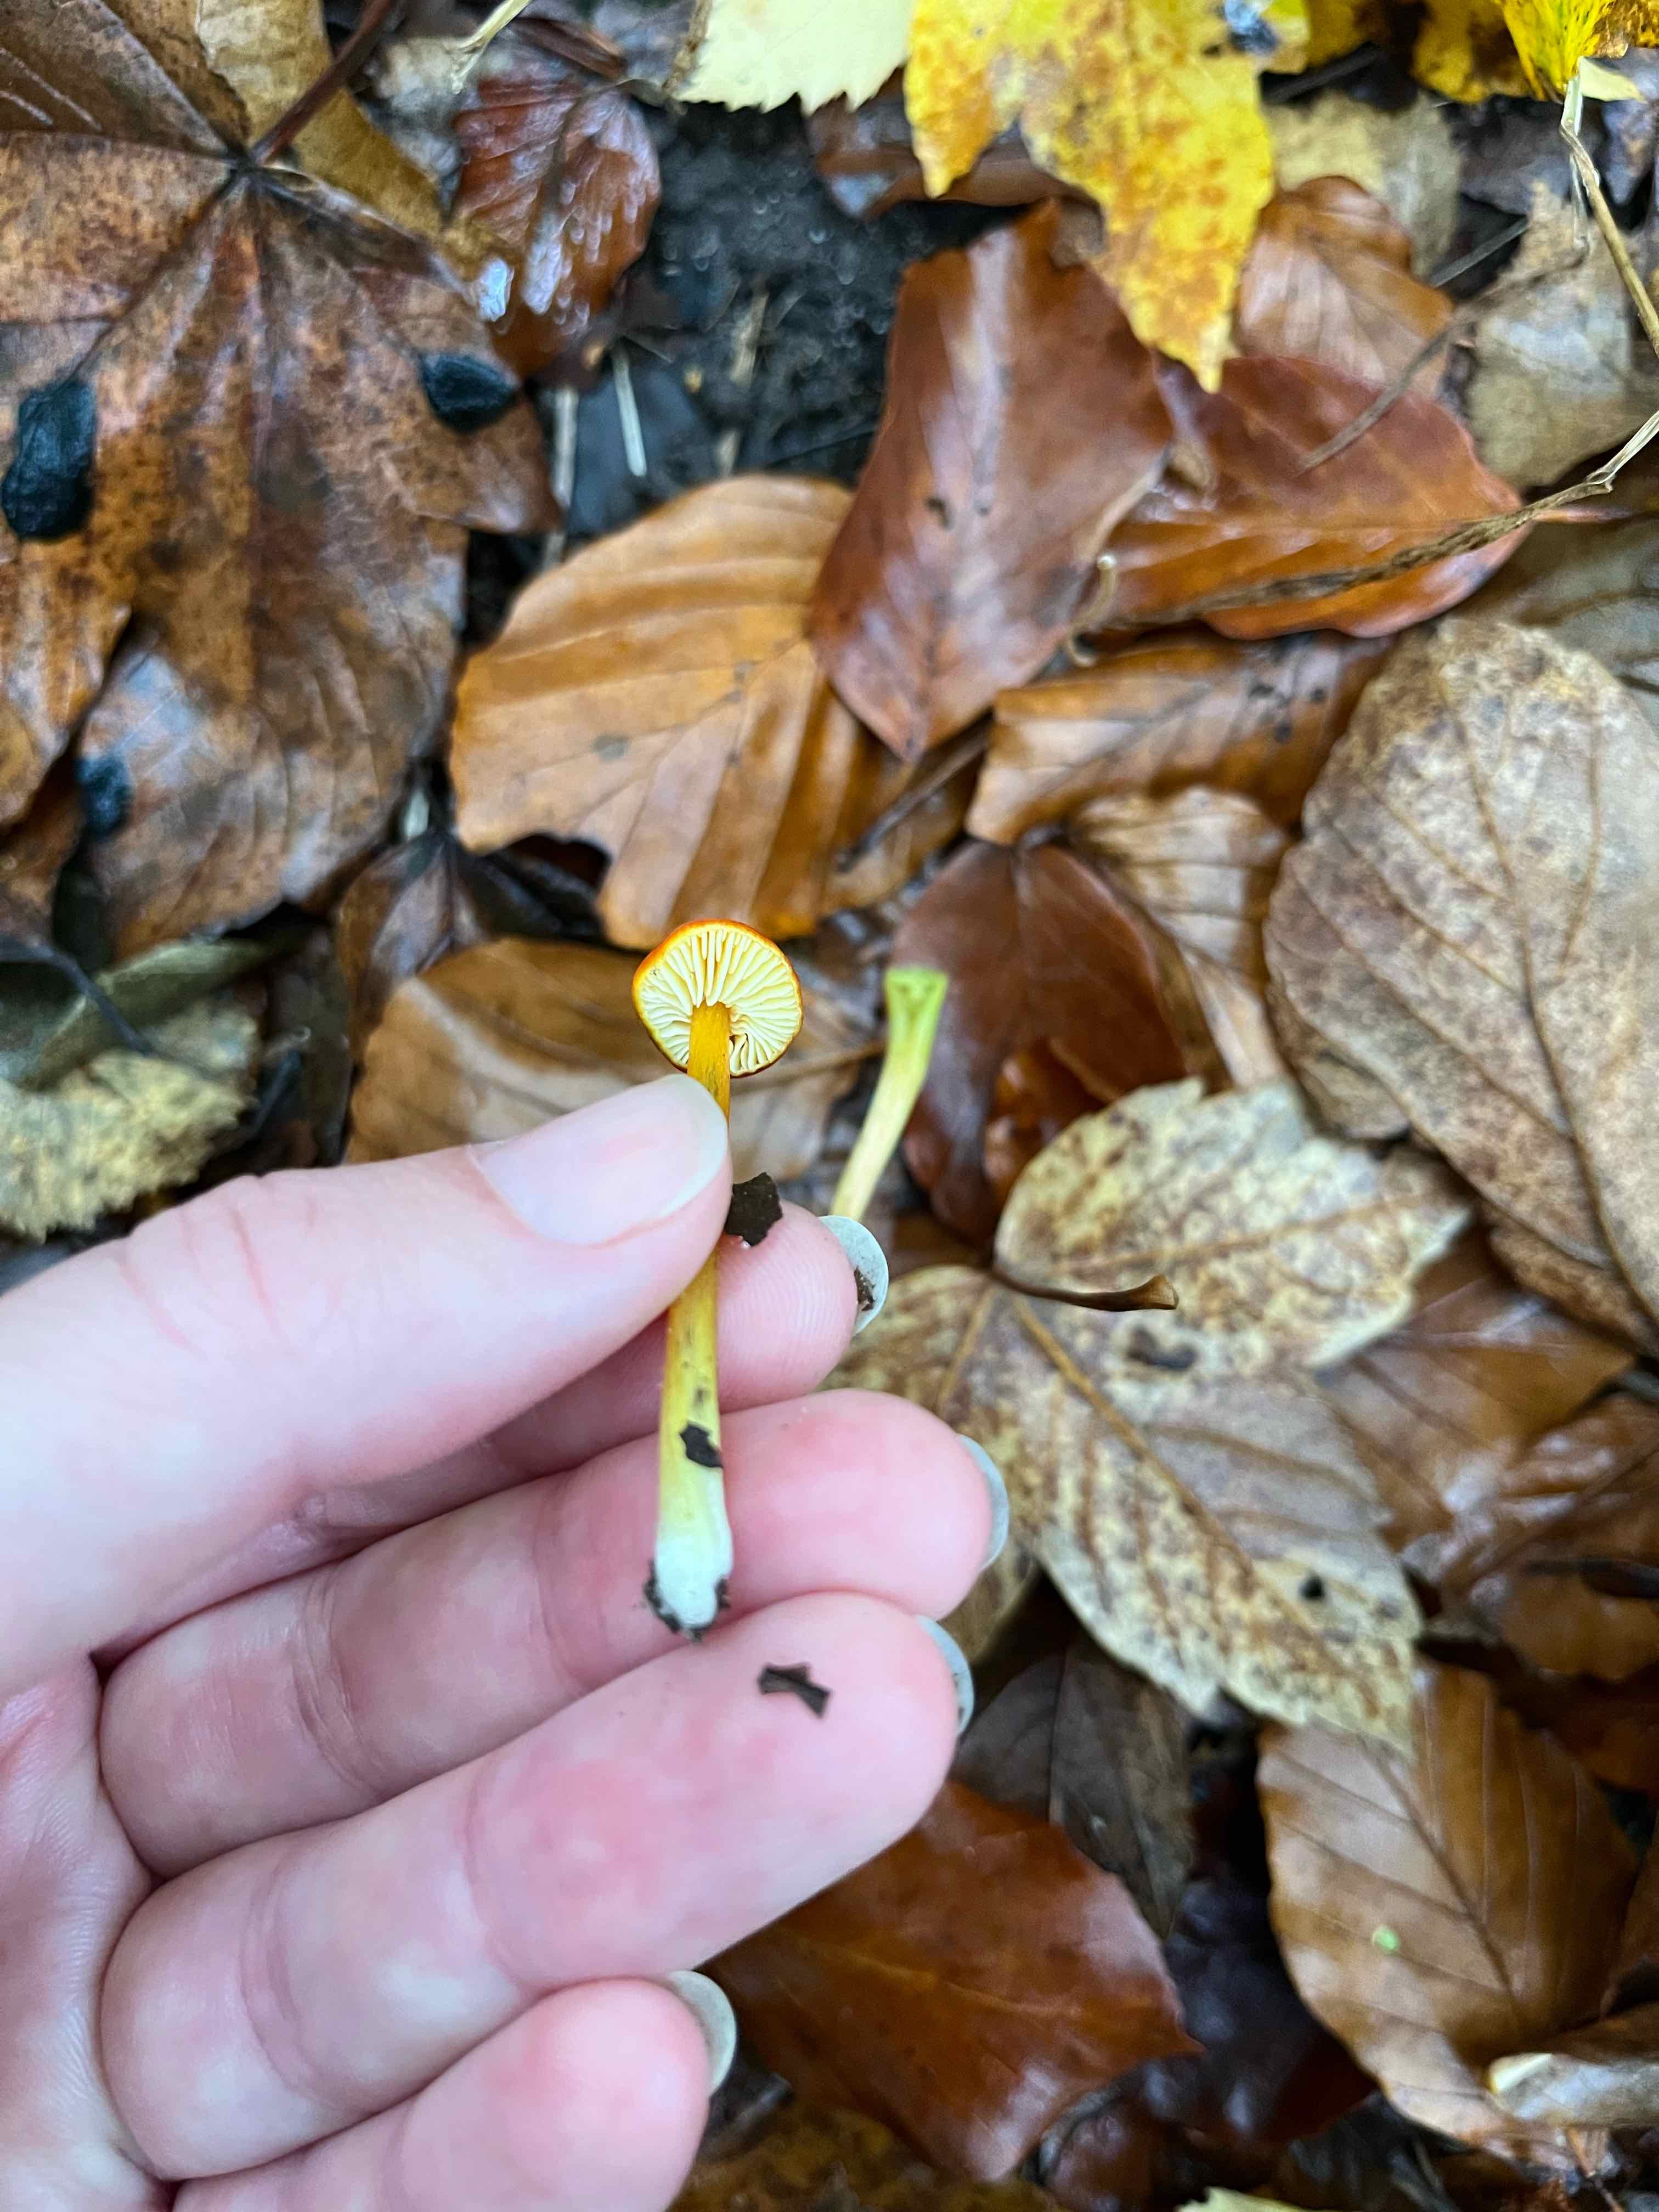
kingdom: Fungi
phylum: Basidiomycota
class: Agaricomycetes
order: Agaricales
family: Hygrophoraceae
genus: Hygrocybe
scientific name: Hygrocybe conica
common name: kegle-vokshat
